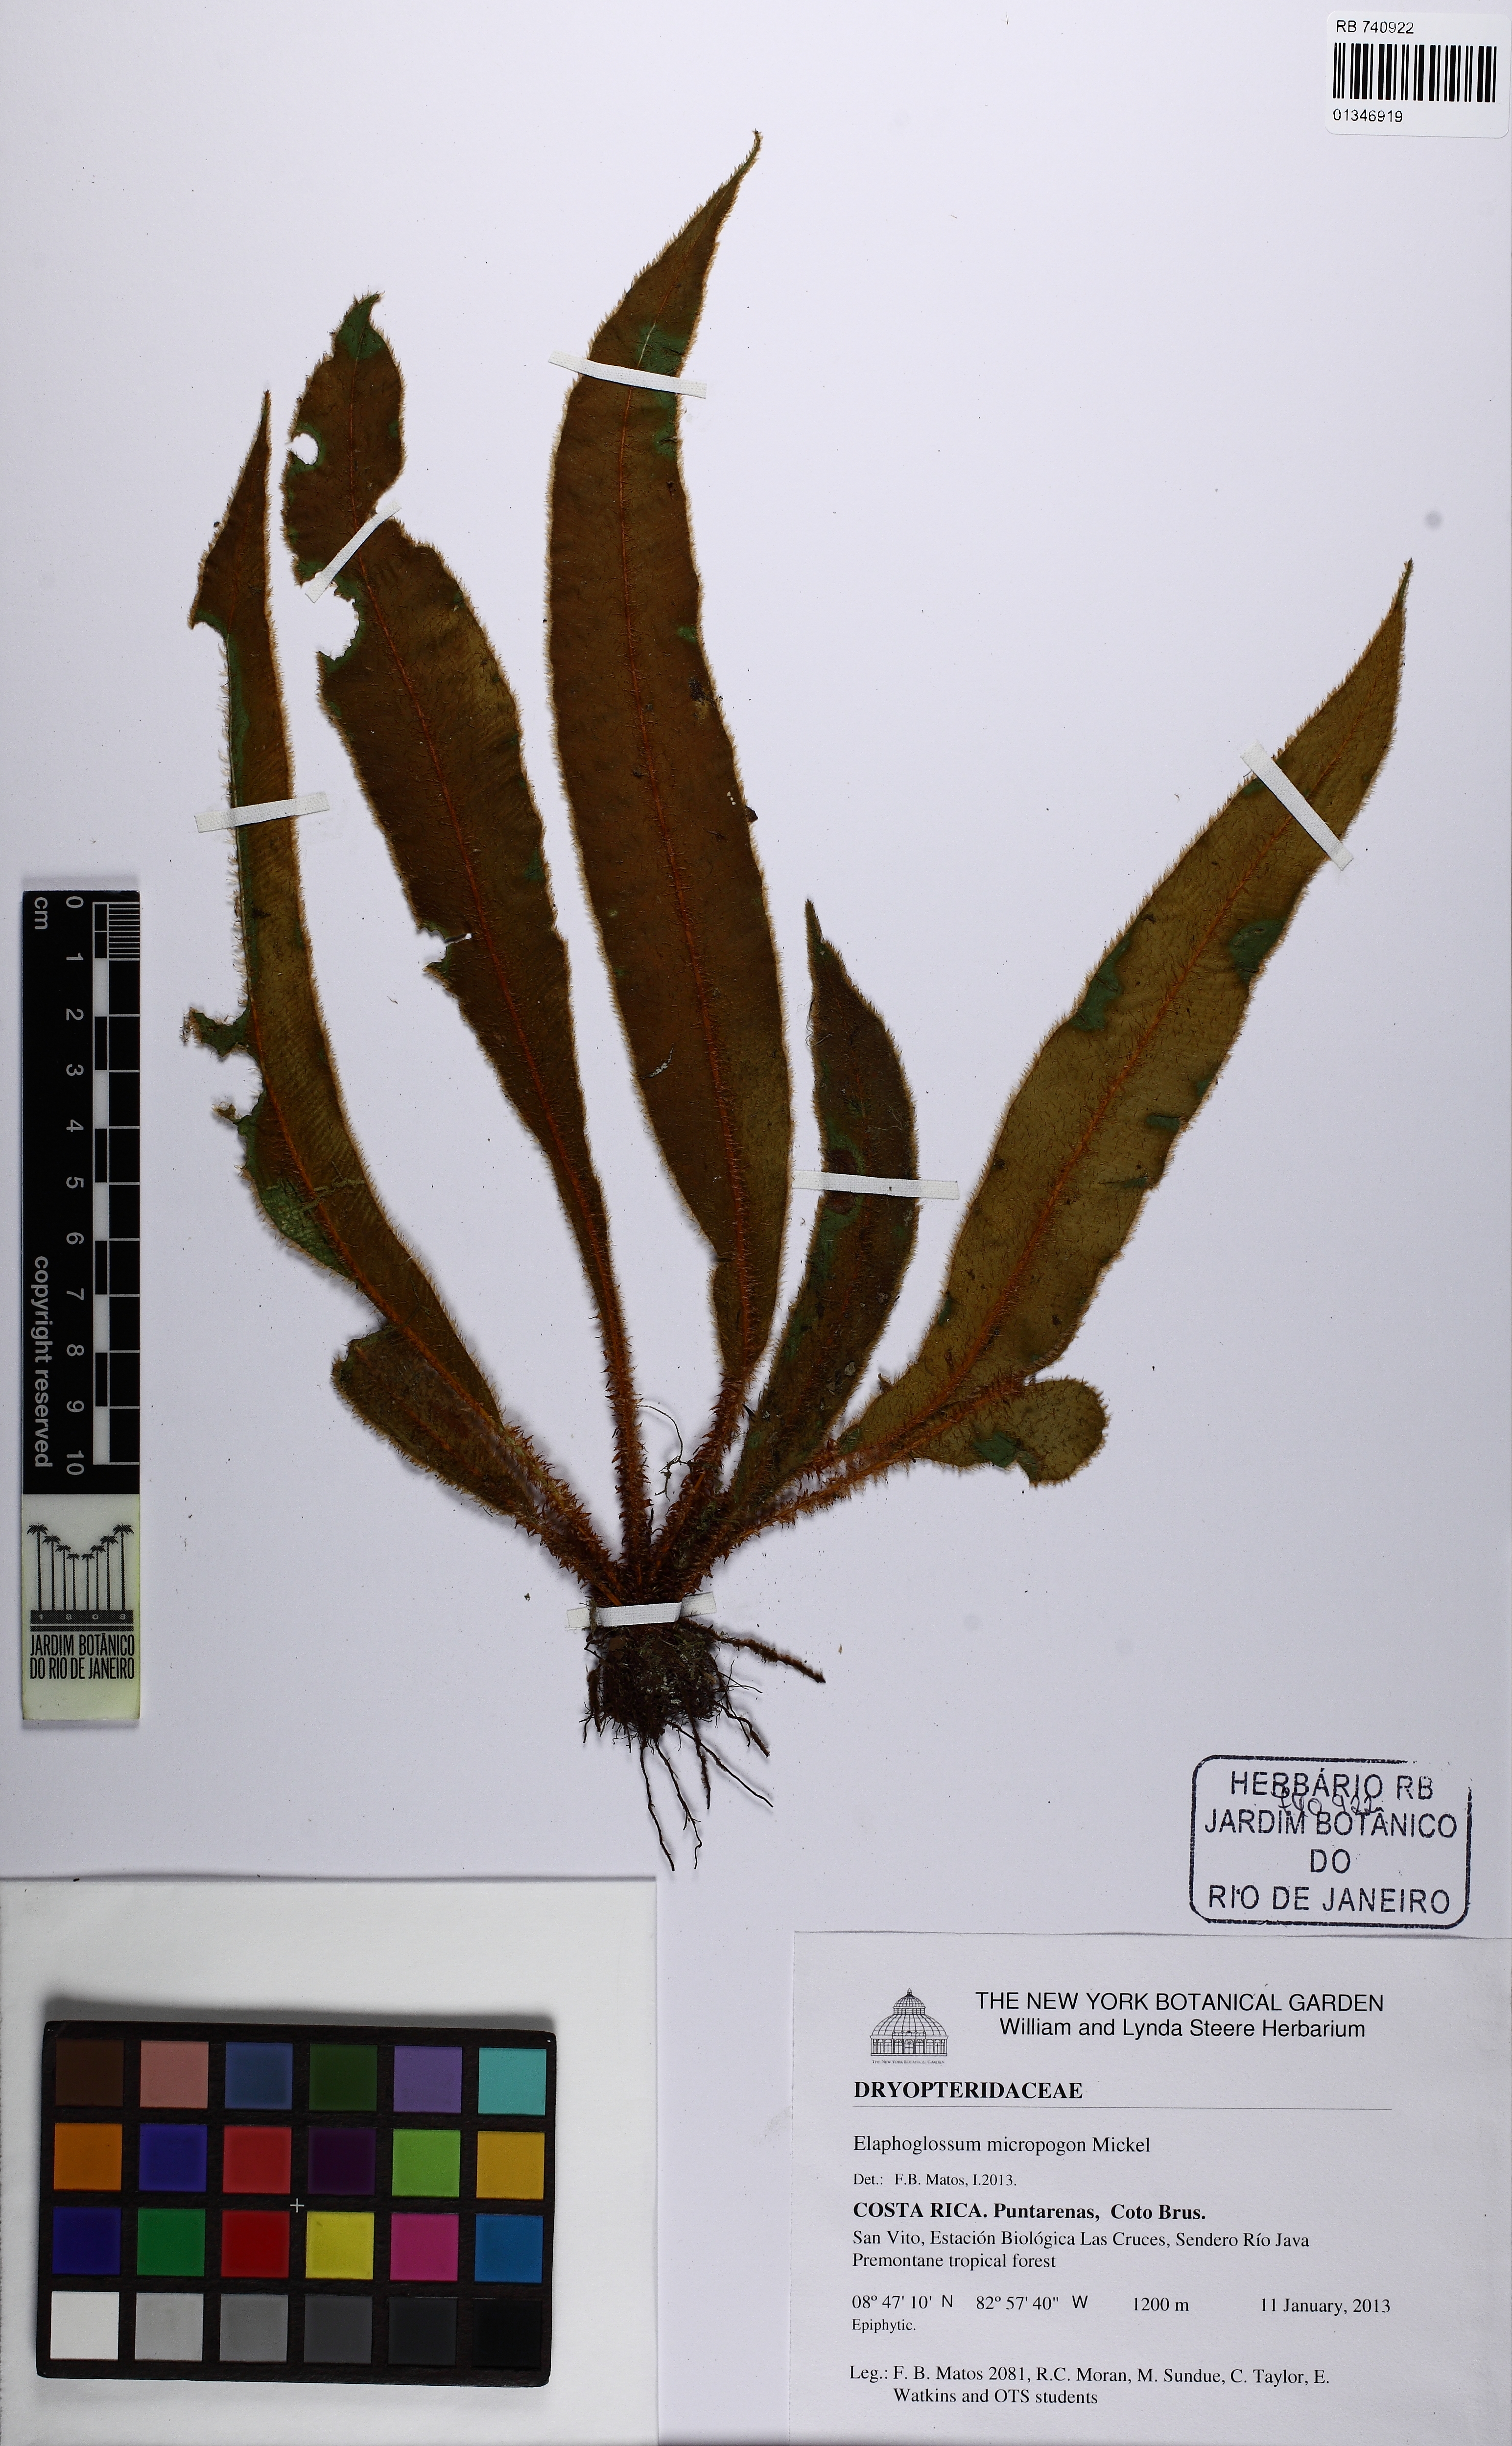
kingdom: Plantae
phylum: Tracheophyta
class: Polypodiopsida
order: Polypodiales
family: Dryopteridaceae
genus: Elaphoglossum
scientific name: Elaphoglossum micropogon
